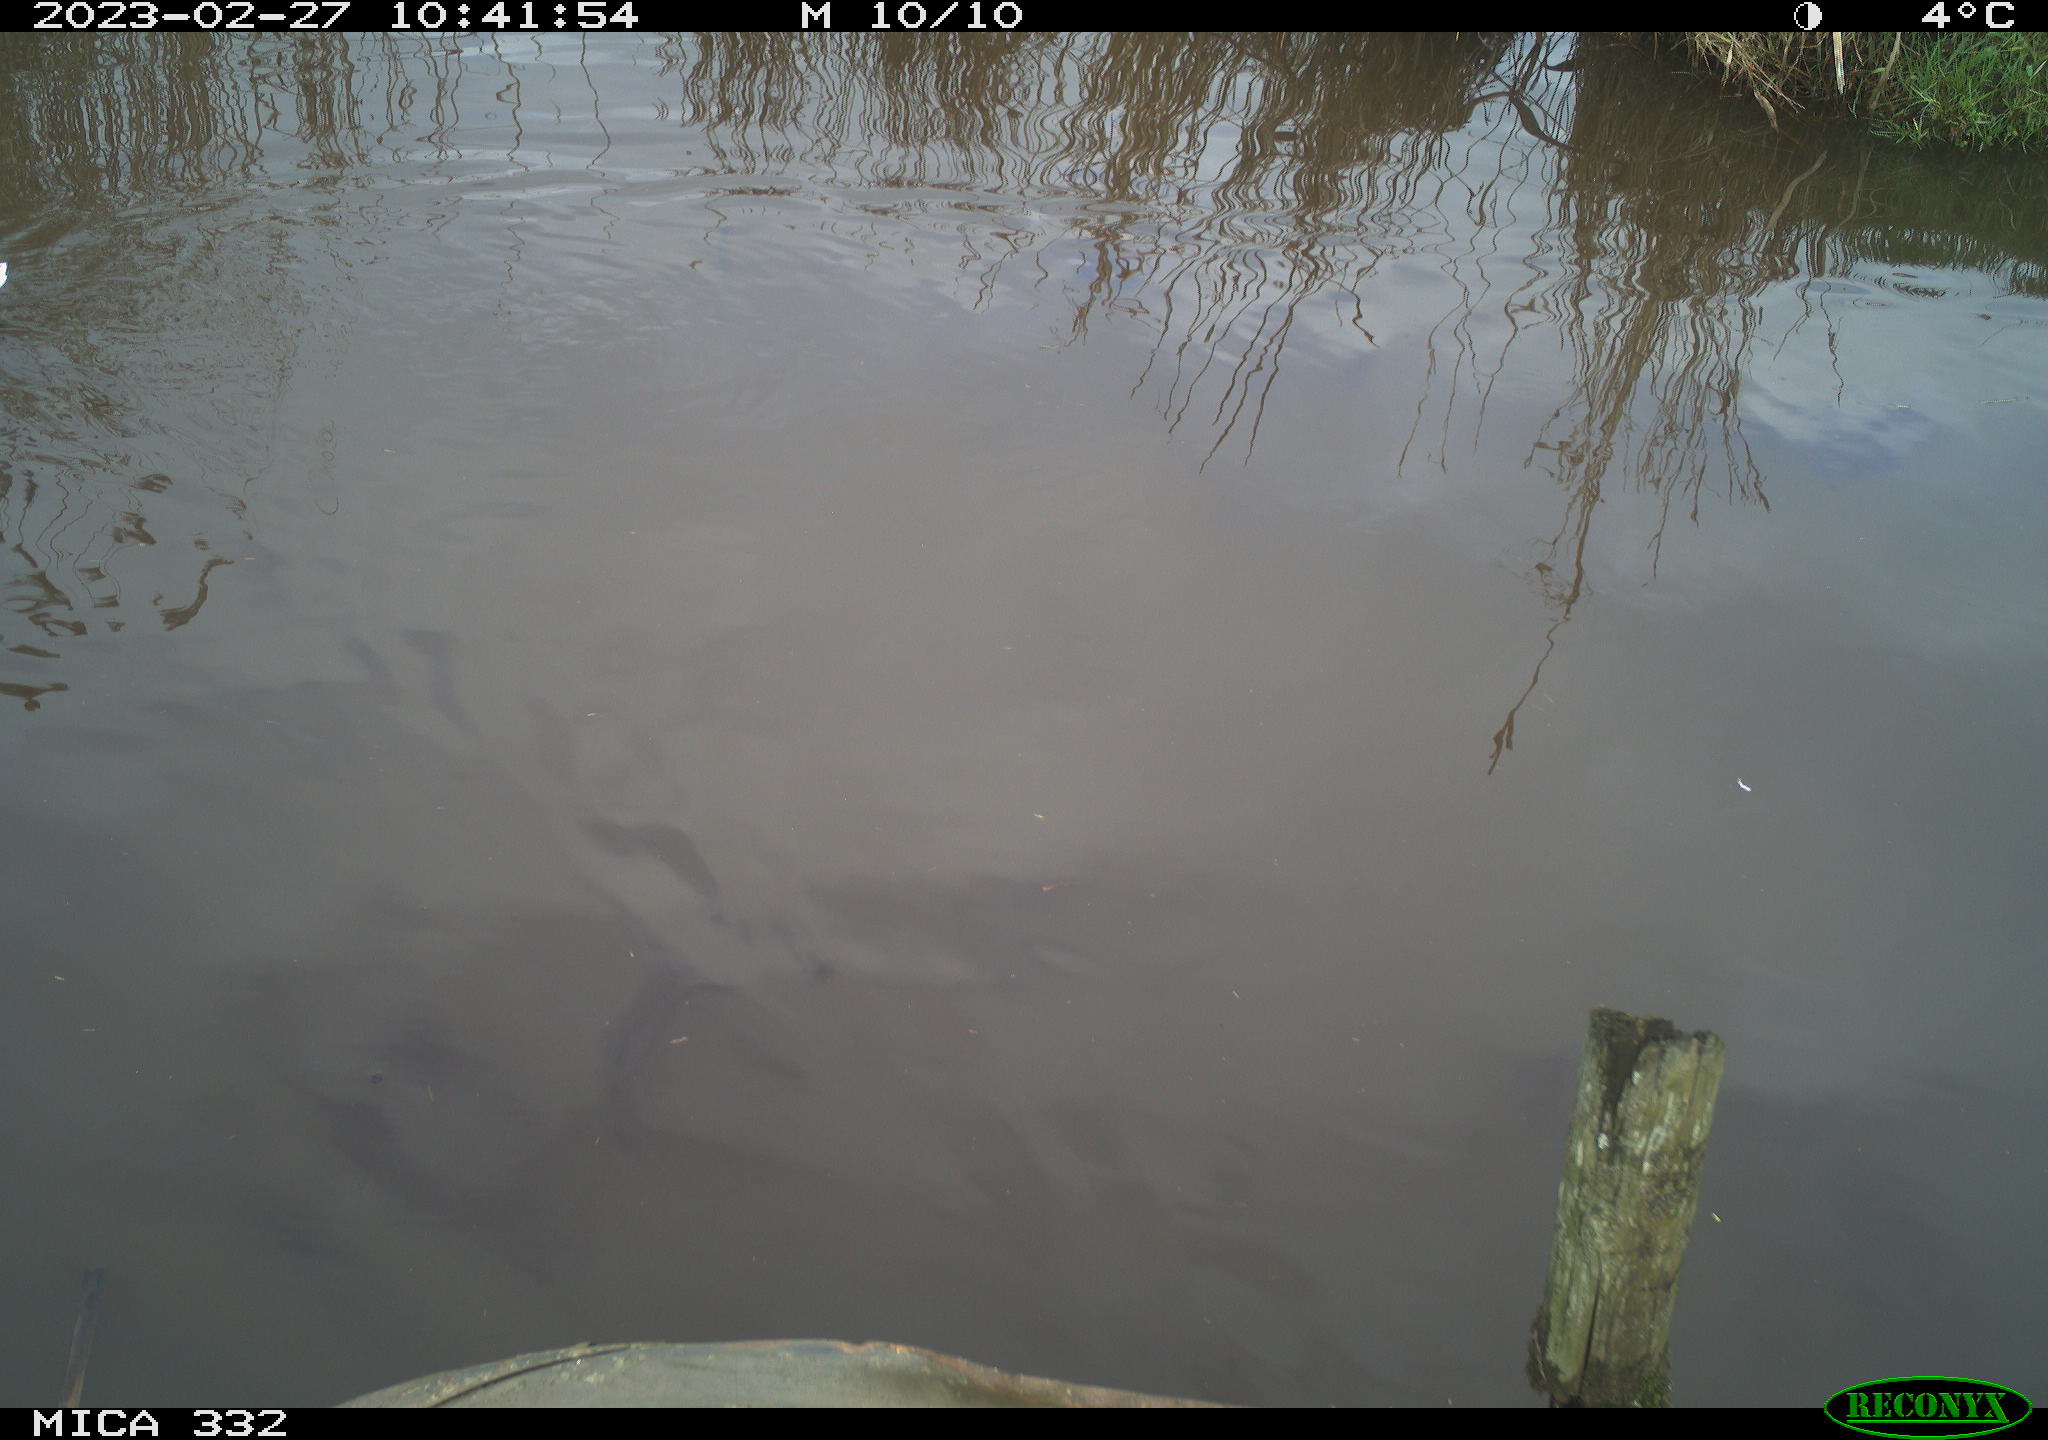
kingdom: Animalia
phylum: Chordata
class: Aves
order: Anseriformes
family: Anatidae
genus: Anas
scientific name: Anas
